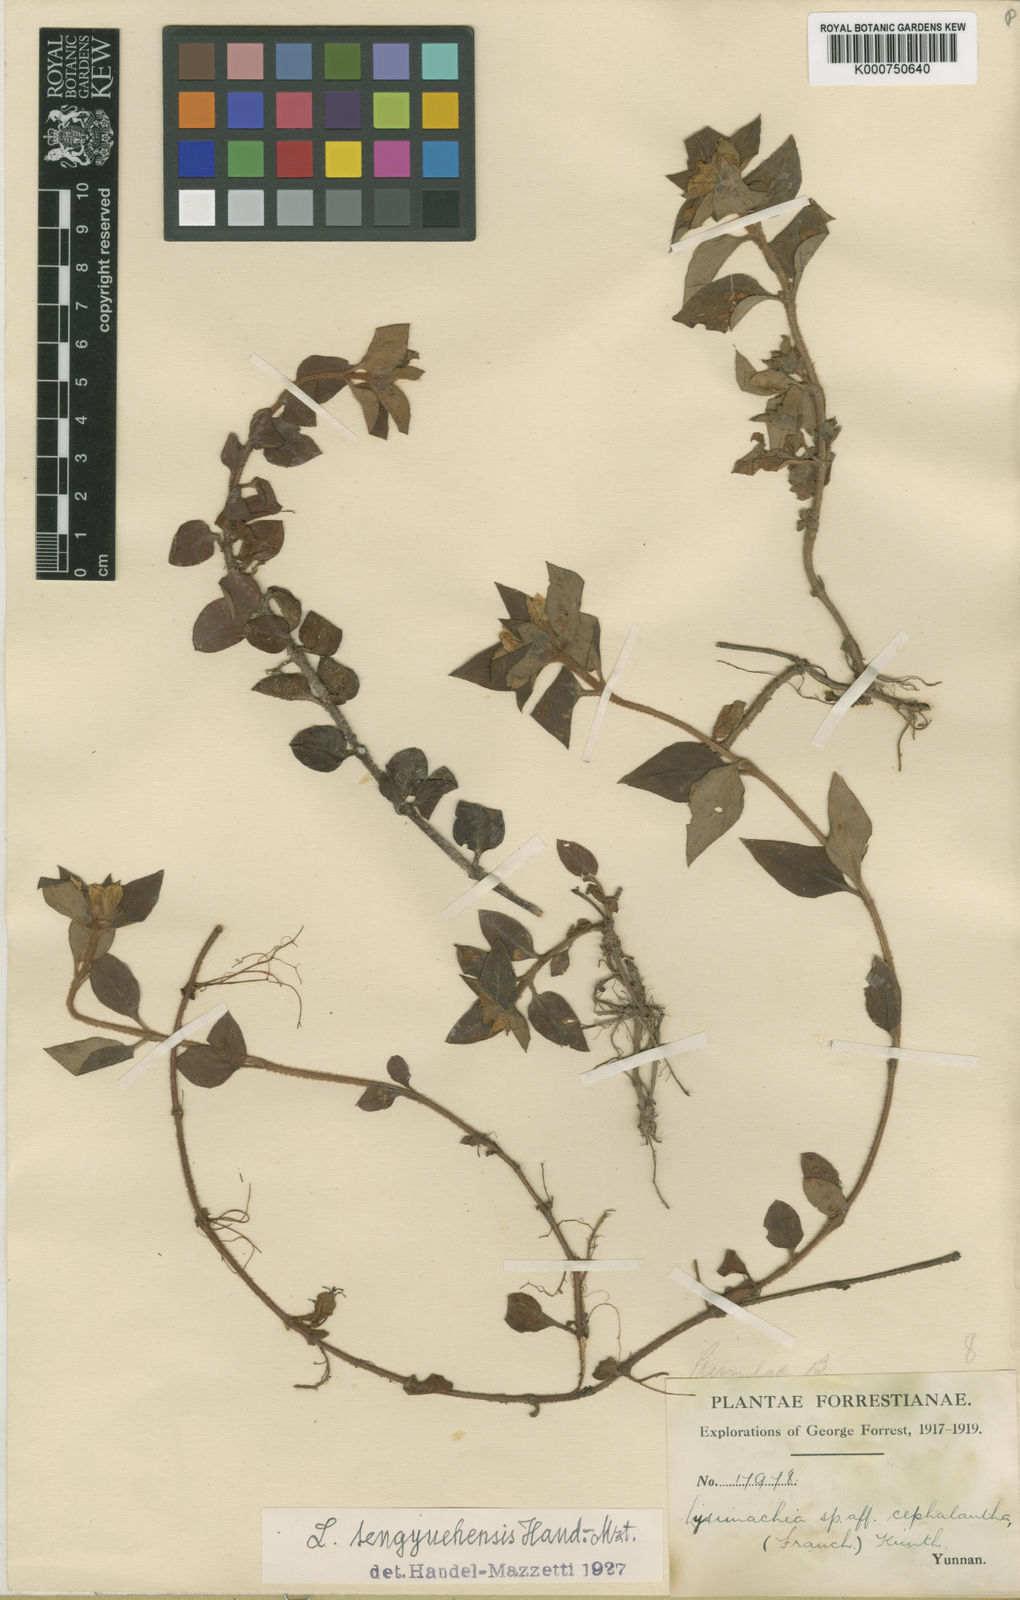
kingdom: Plantae
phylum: Tracheophyta
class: Magnoliopsida
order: Ericales
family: Primulaceae
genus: Lysimachia
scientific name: Lysimachia tengyuehensis
